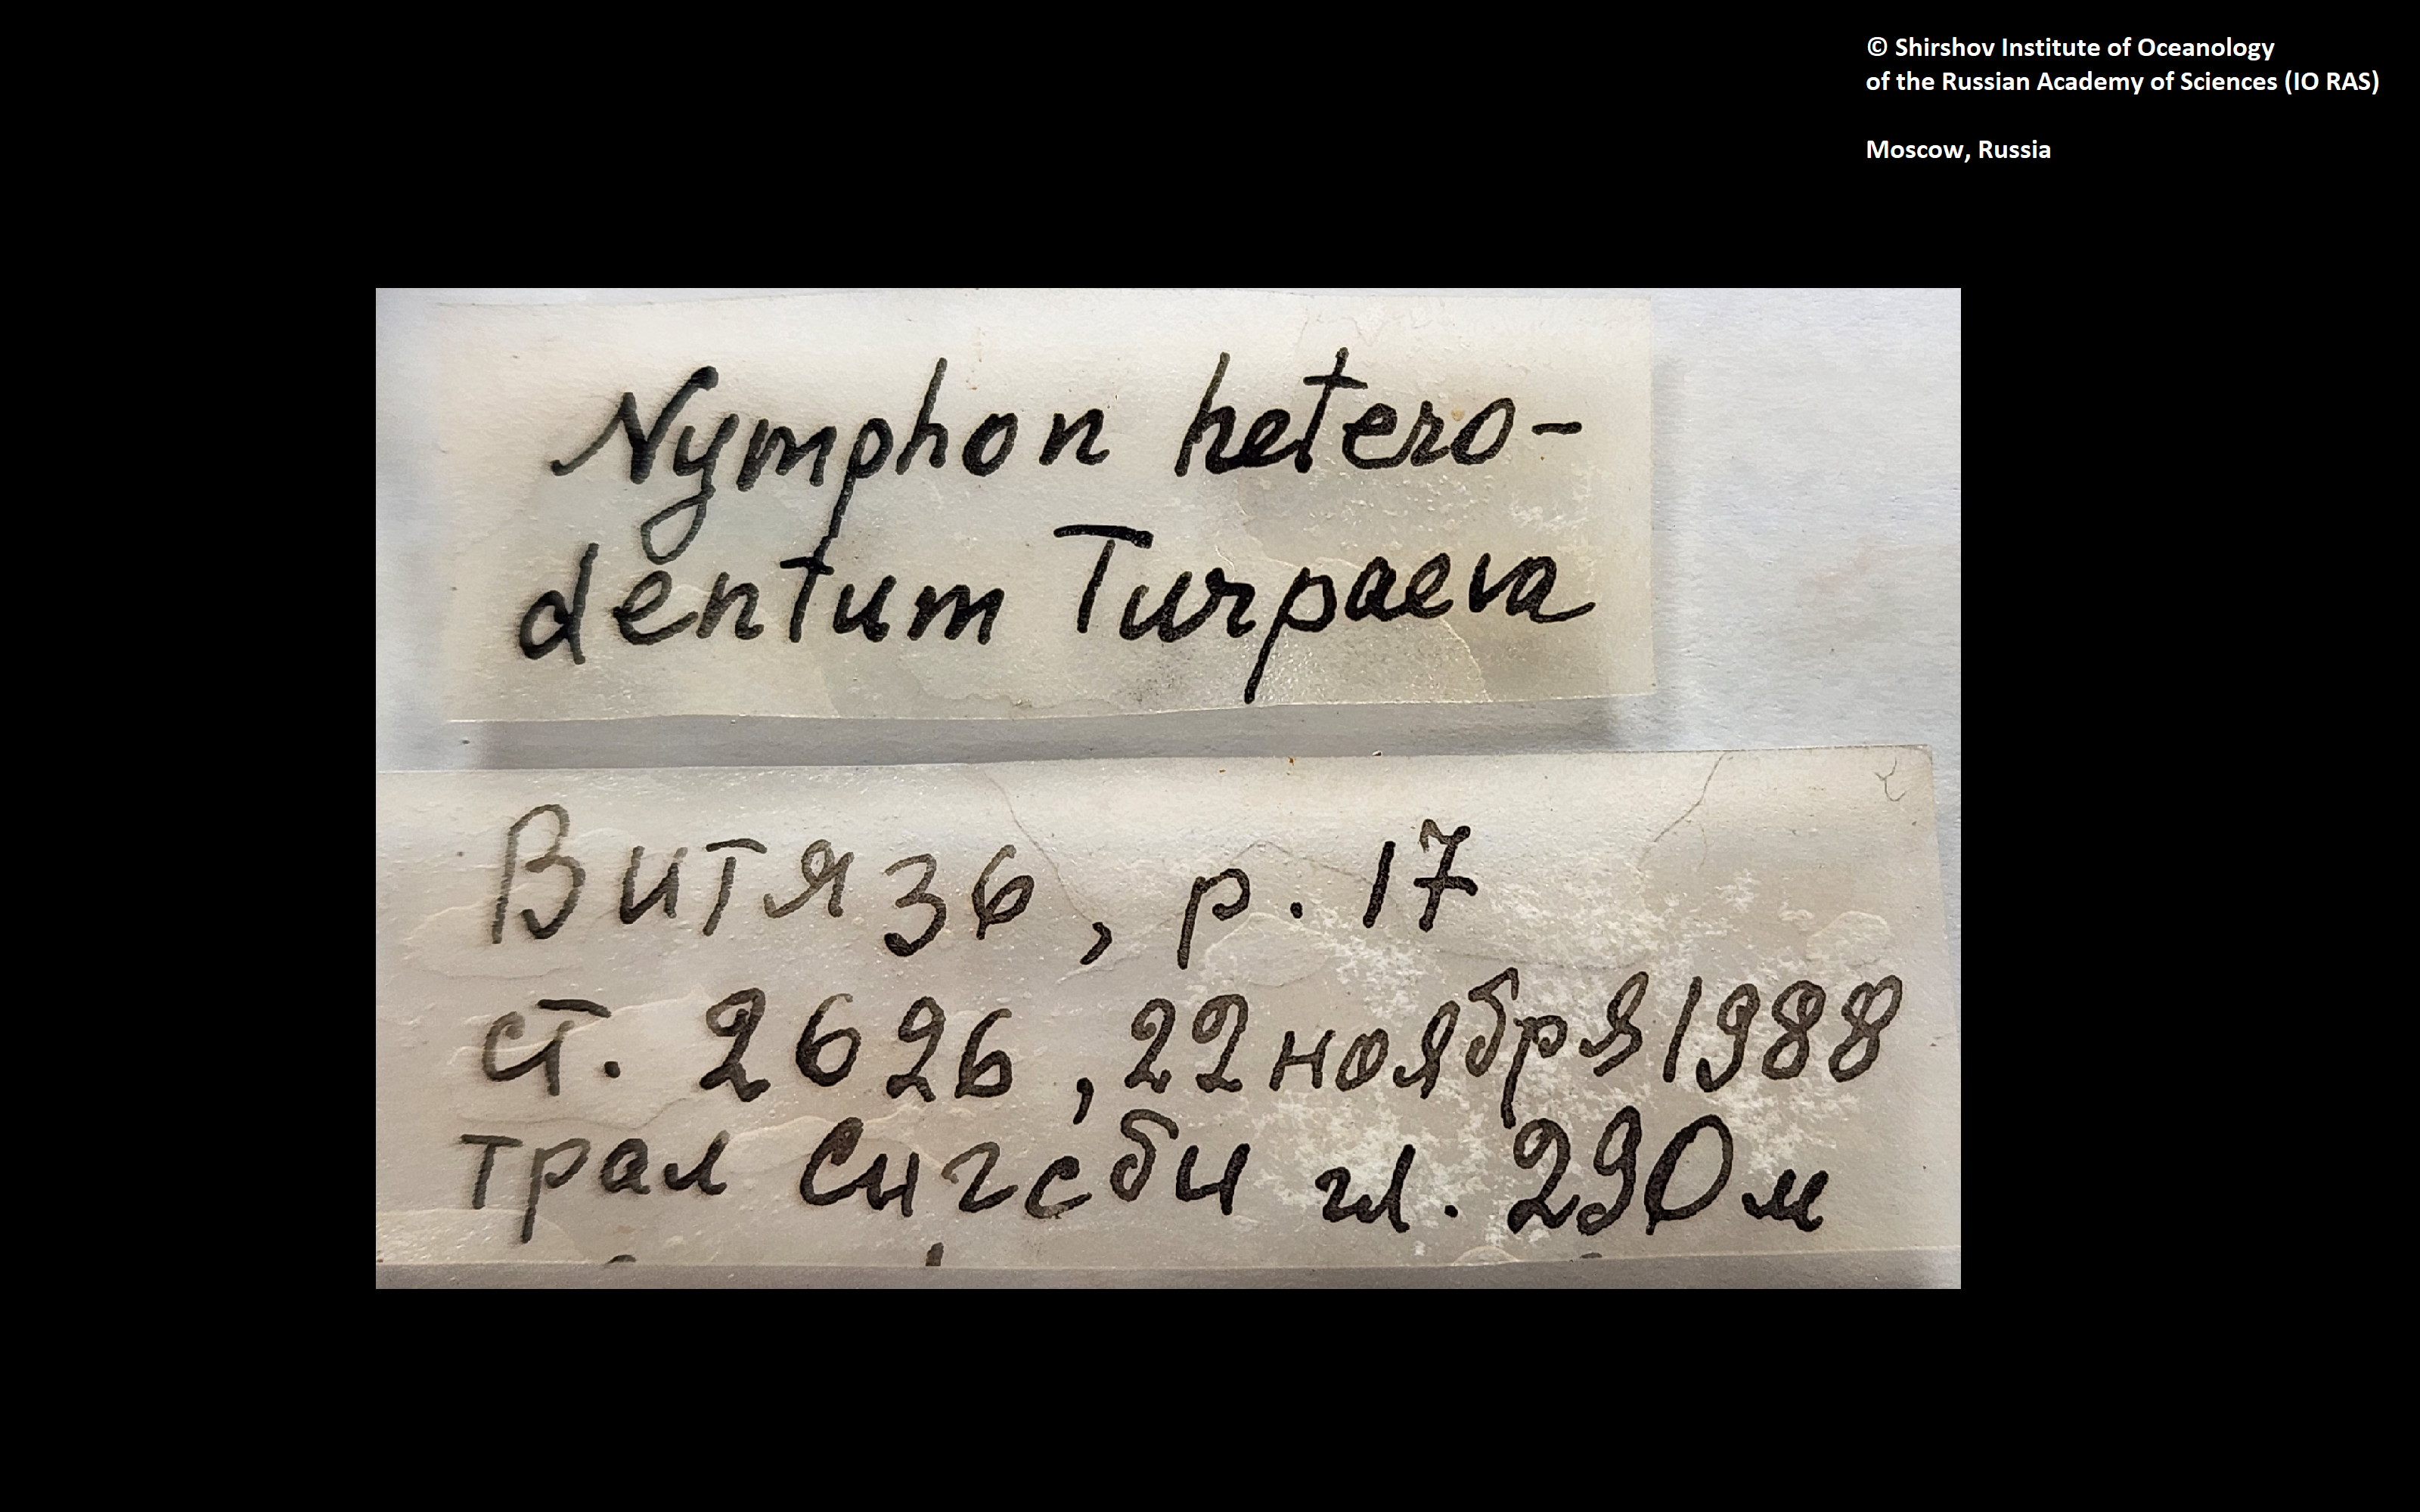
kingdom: Animalia
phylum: Arthropoda
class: Pycnogonida
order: Pantopoda
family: Nymphonidae
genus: Nymphon
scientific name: Nymphon heterodentum
